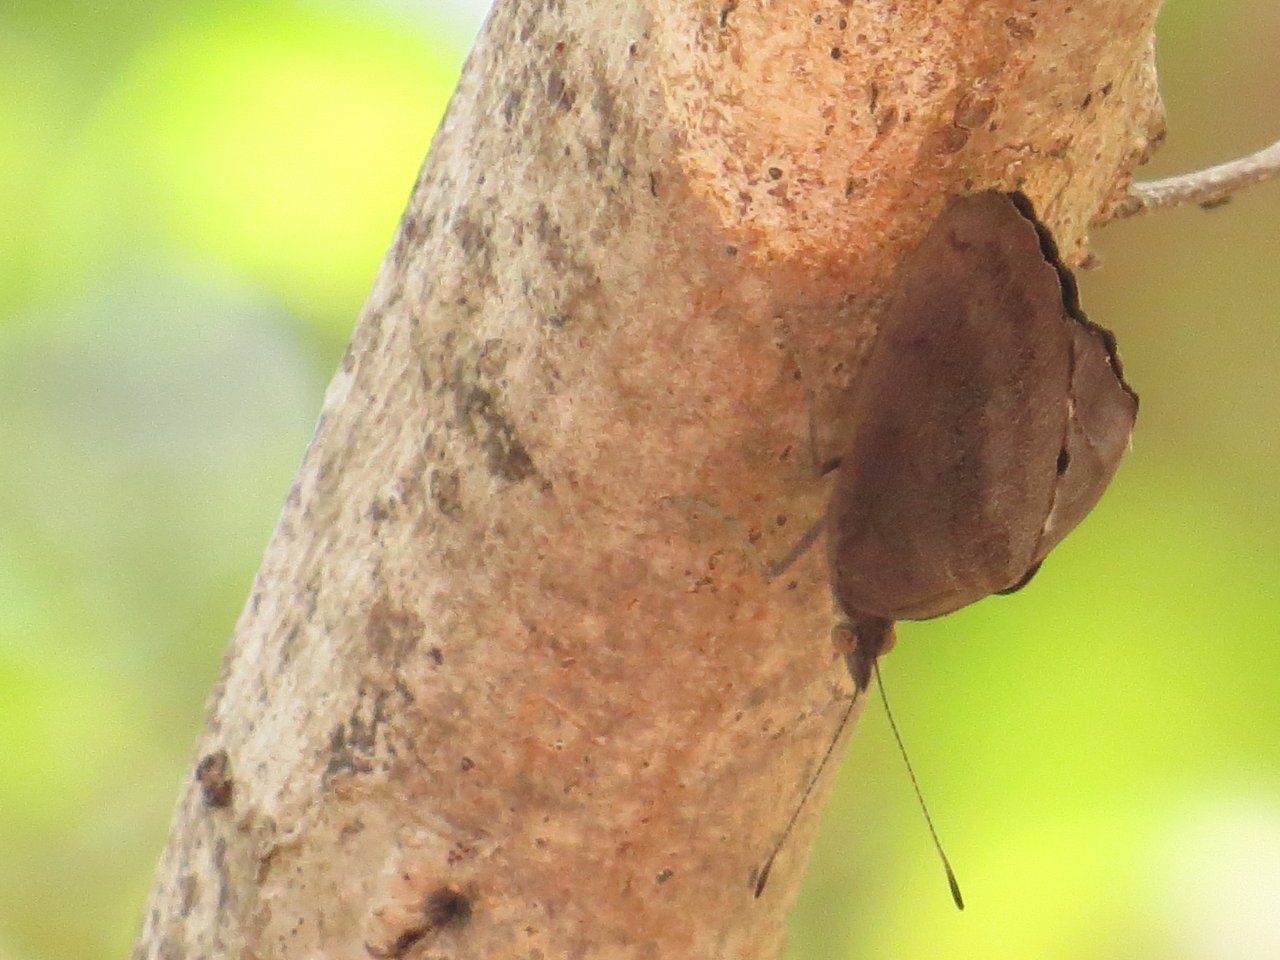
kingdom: Animalia
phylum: Arthropoda
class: Insecta
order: Lepidoptera
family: Nymphalidae
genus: Eunica
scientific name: Eunica tatila
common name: Florida Purplewing
